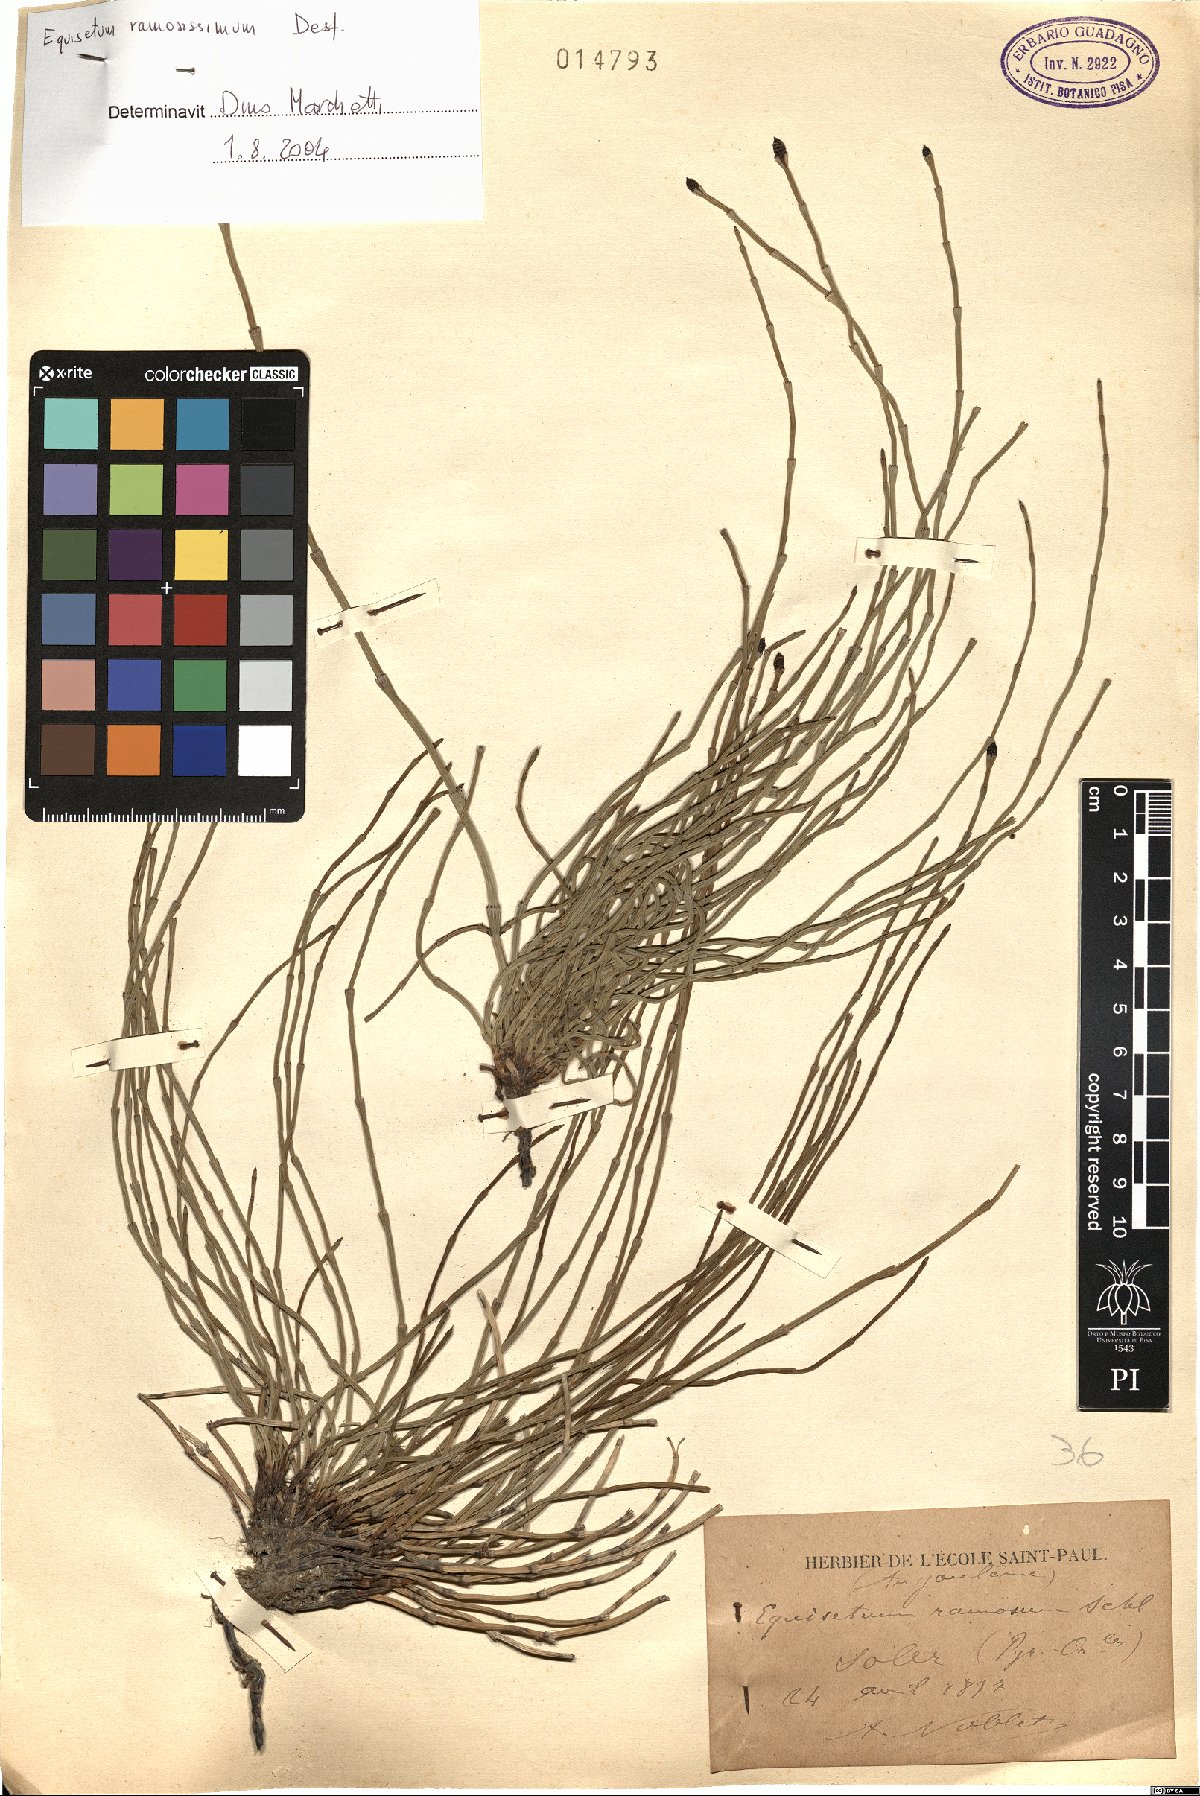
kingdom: Plantae
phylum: Tracheophyta
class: Polypodiopsida
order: Equisetales
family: Equisetaceae
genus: Equisetum
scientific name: Equisetum ramosissimum
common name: Branched horsetail
